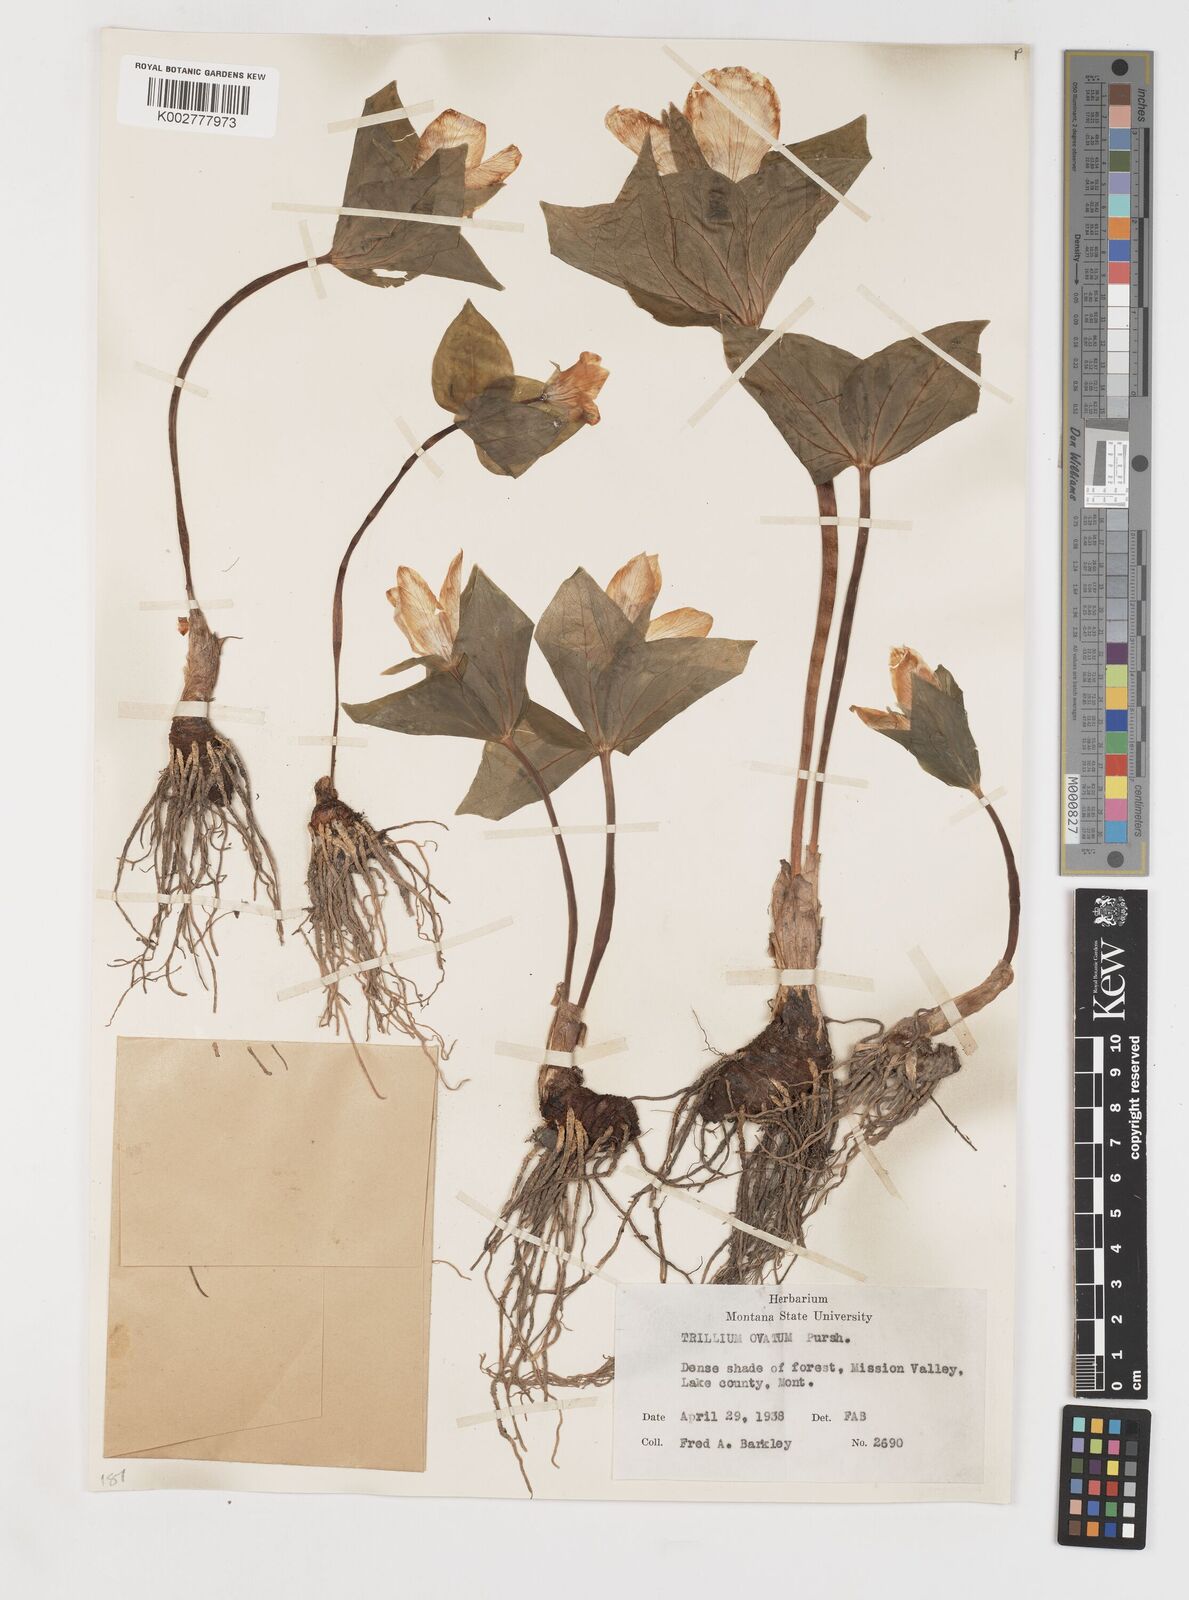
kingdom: Plantae
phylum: Tracheophyta
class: Liliopsida
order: Liliales
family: Melanthiaceae
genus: Trillium
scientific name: Trillium ovatum
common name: Pacific trillium
